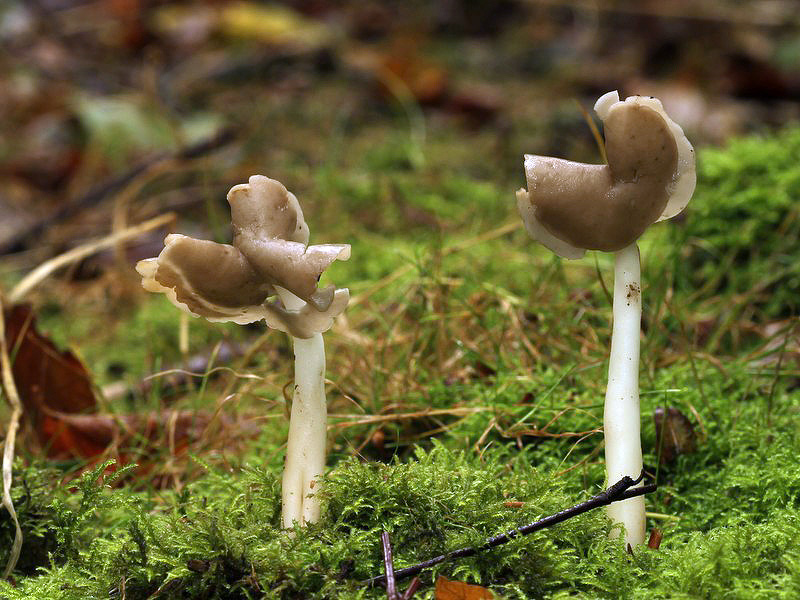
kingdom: Fungi
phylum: Ascomycota
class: Pezizomycetes
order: Pezizales
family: Helvellaceae
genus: Helvella
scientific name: Helvella
